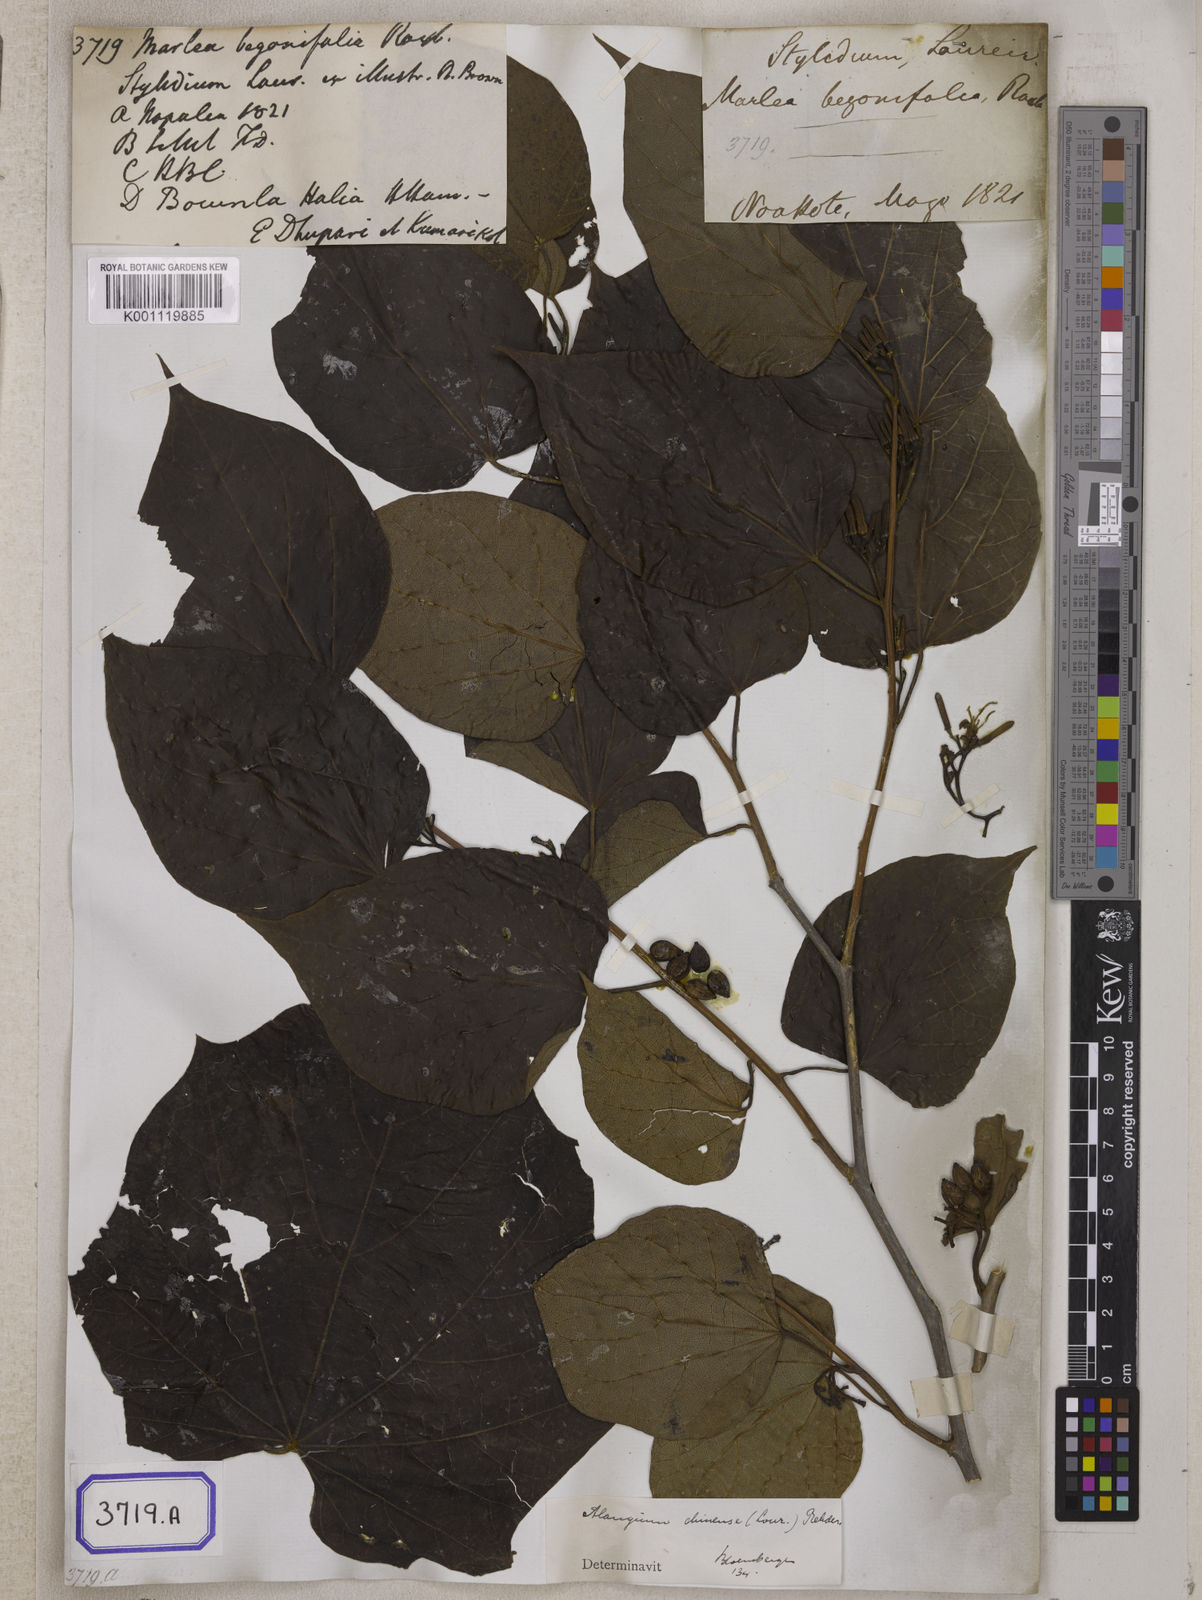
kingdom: Plantae
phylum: Tracheophyta
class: Magnoliopsida
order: Cornales
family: Cornaceae
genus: Alangium
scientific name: Alangium chinense
